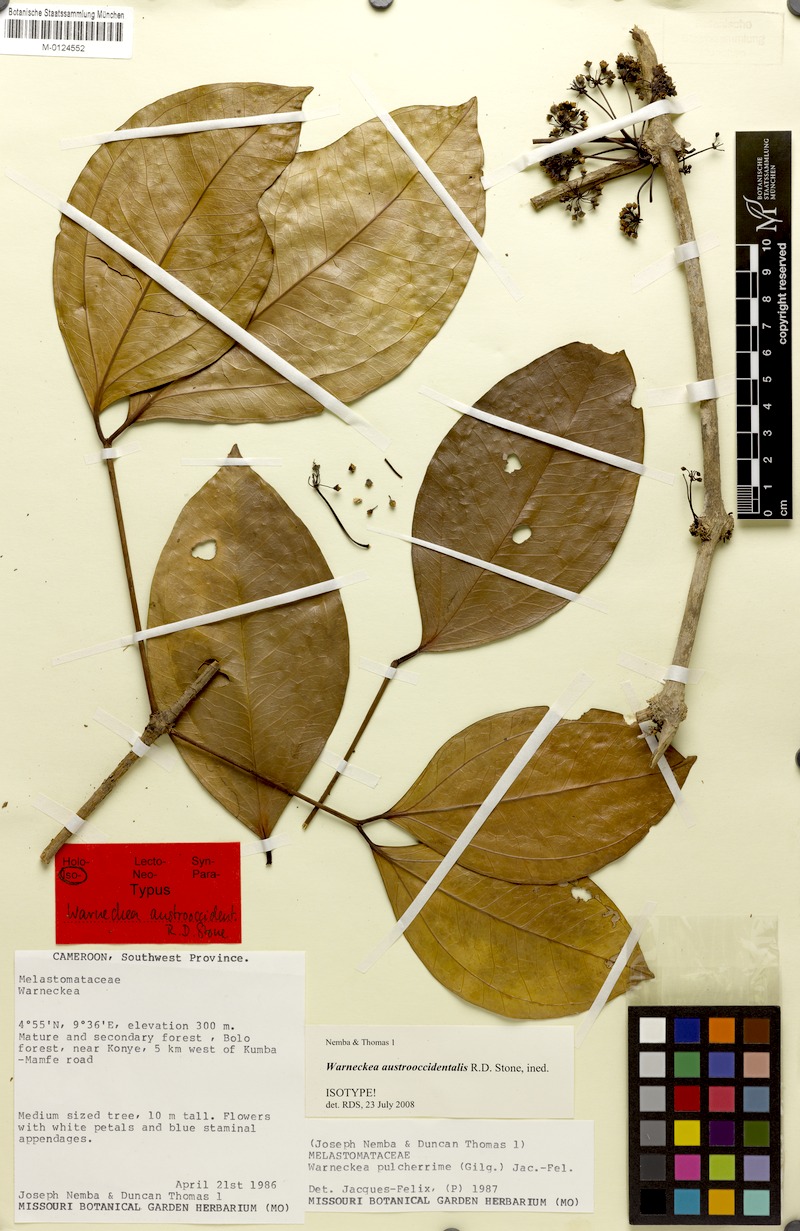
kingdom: Plantae
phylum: Tracheophyta
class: Magnoliopsida
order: Myrtales
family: Melastomataceae
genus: Warneckea
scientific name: Warneckea austrooccidentalis
